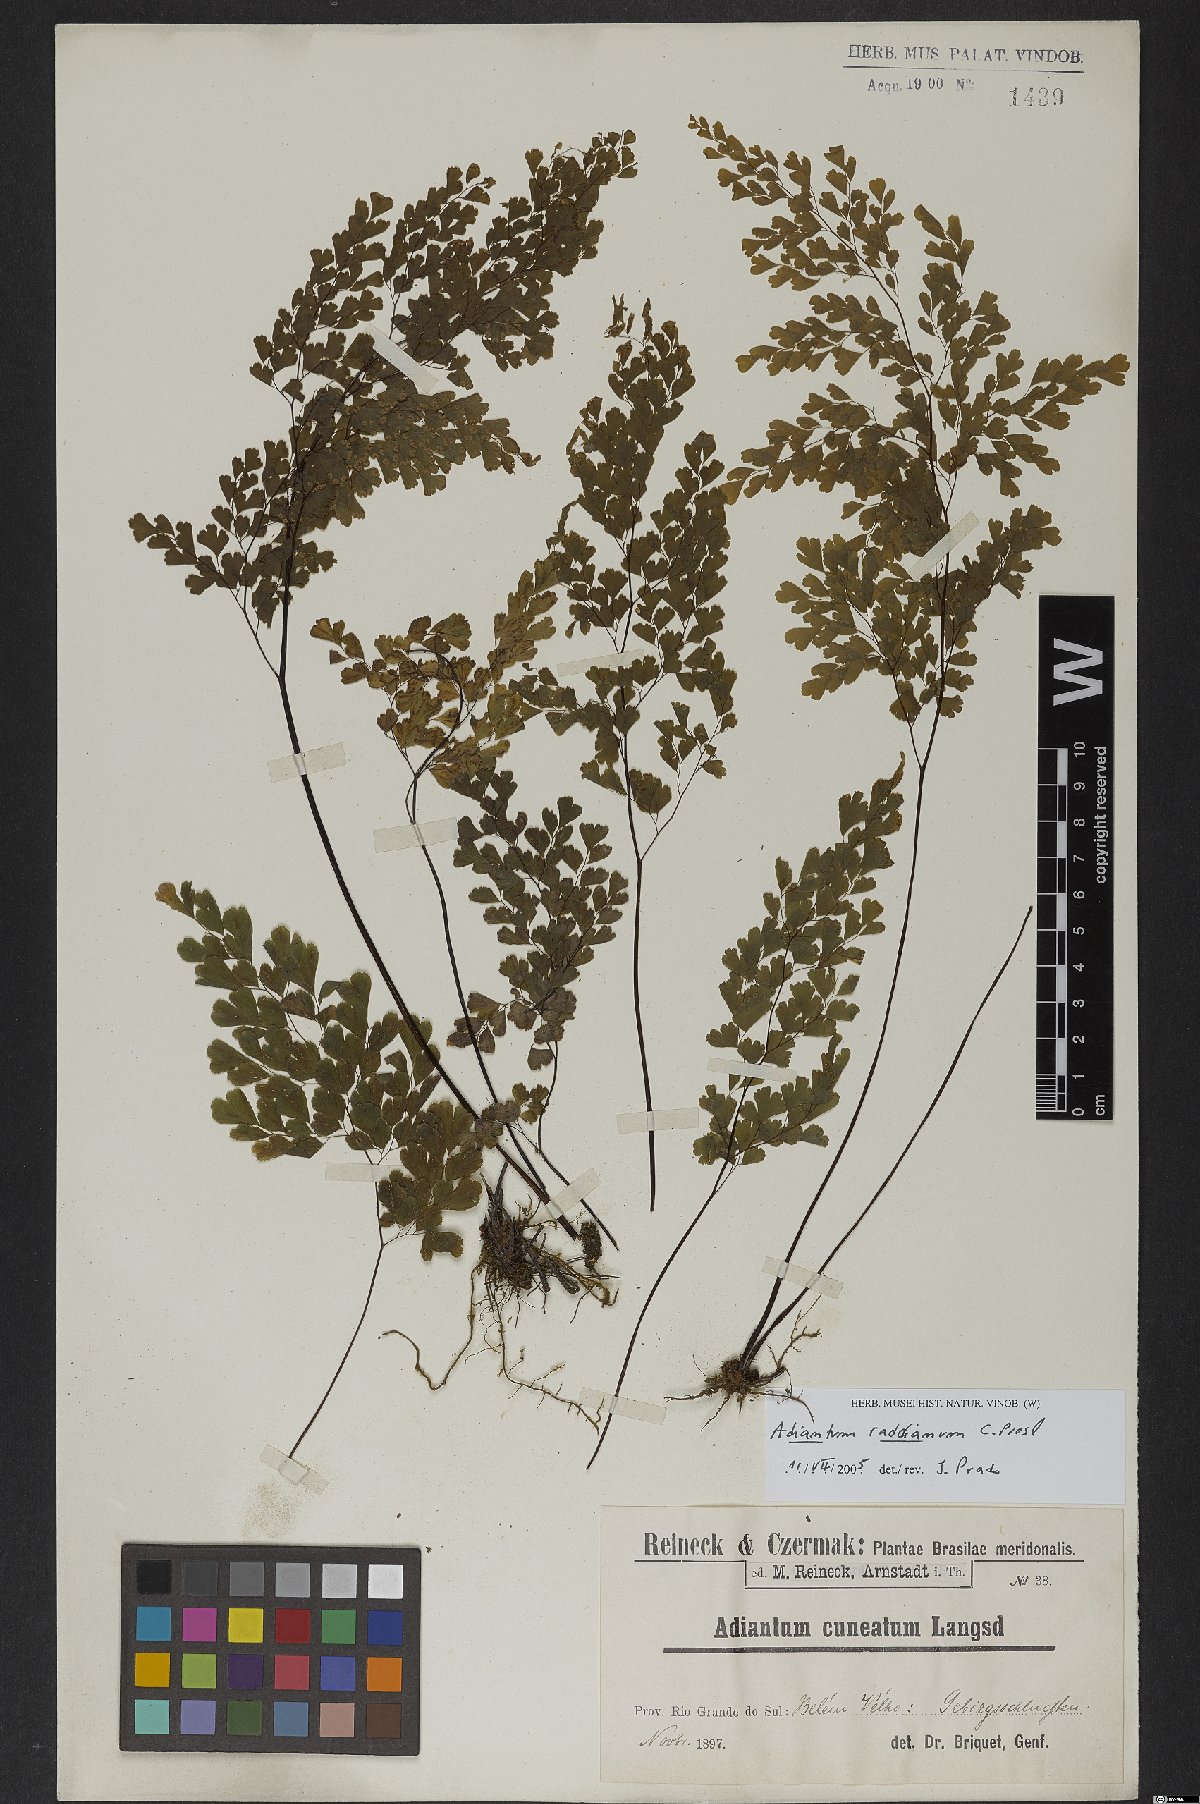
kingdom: Plantae
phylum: Tracheophyta
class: Polypodiopsida
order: Polypodiales
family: Pteridaceae
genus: Adiantum
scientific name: Adiantum raddianum
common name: Delta maidenhair fern
